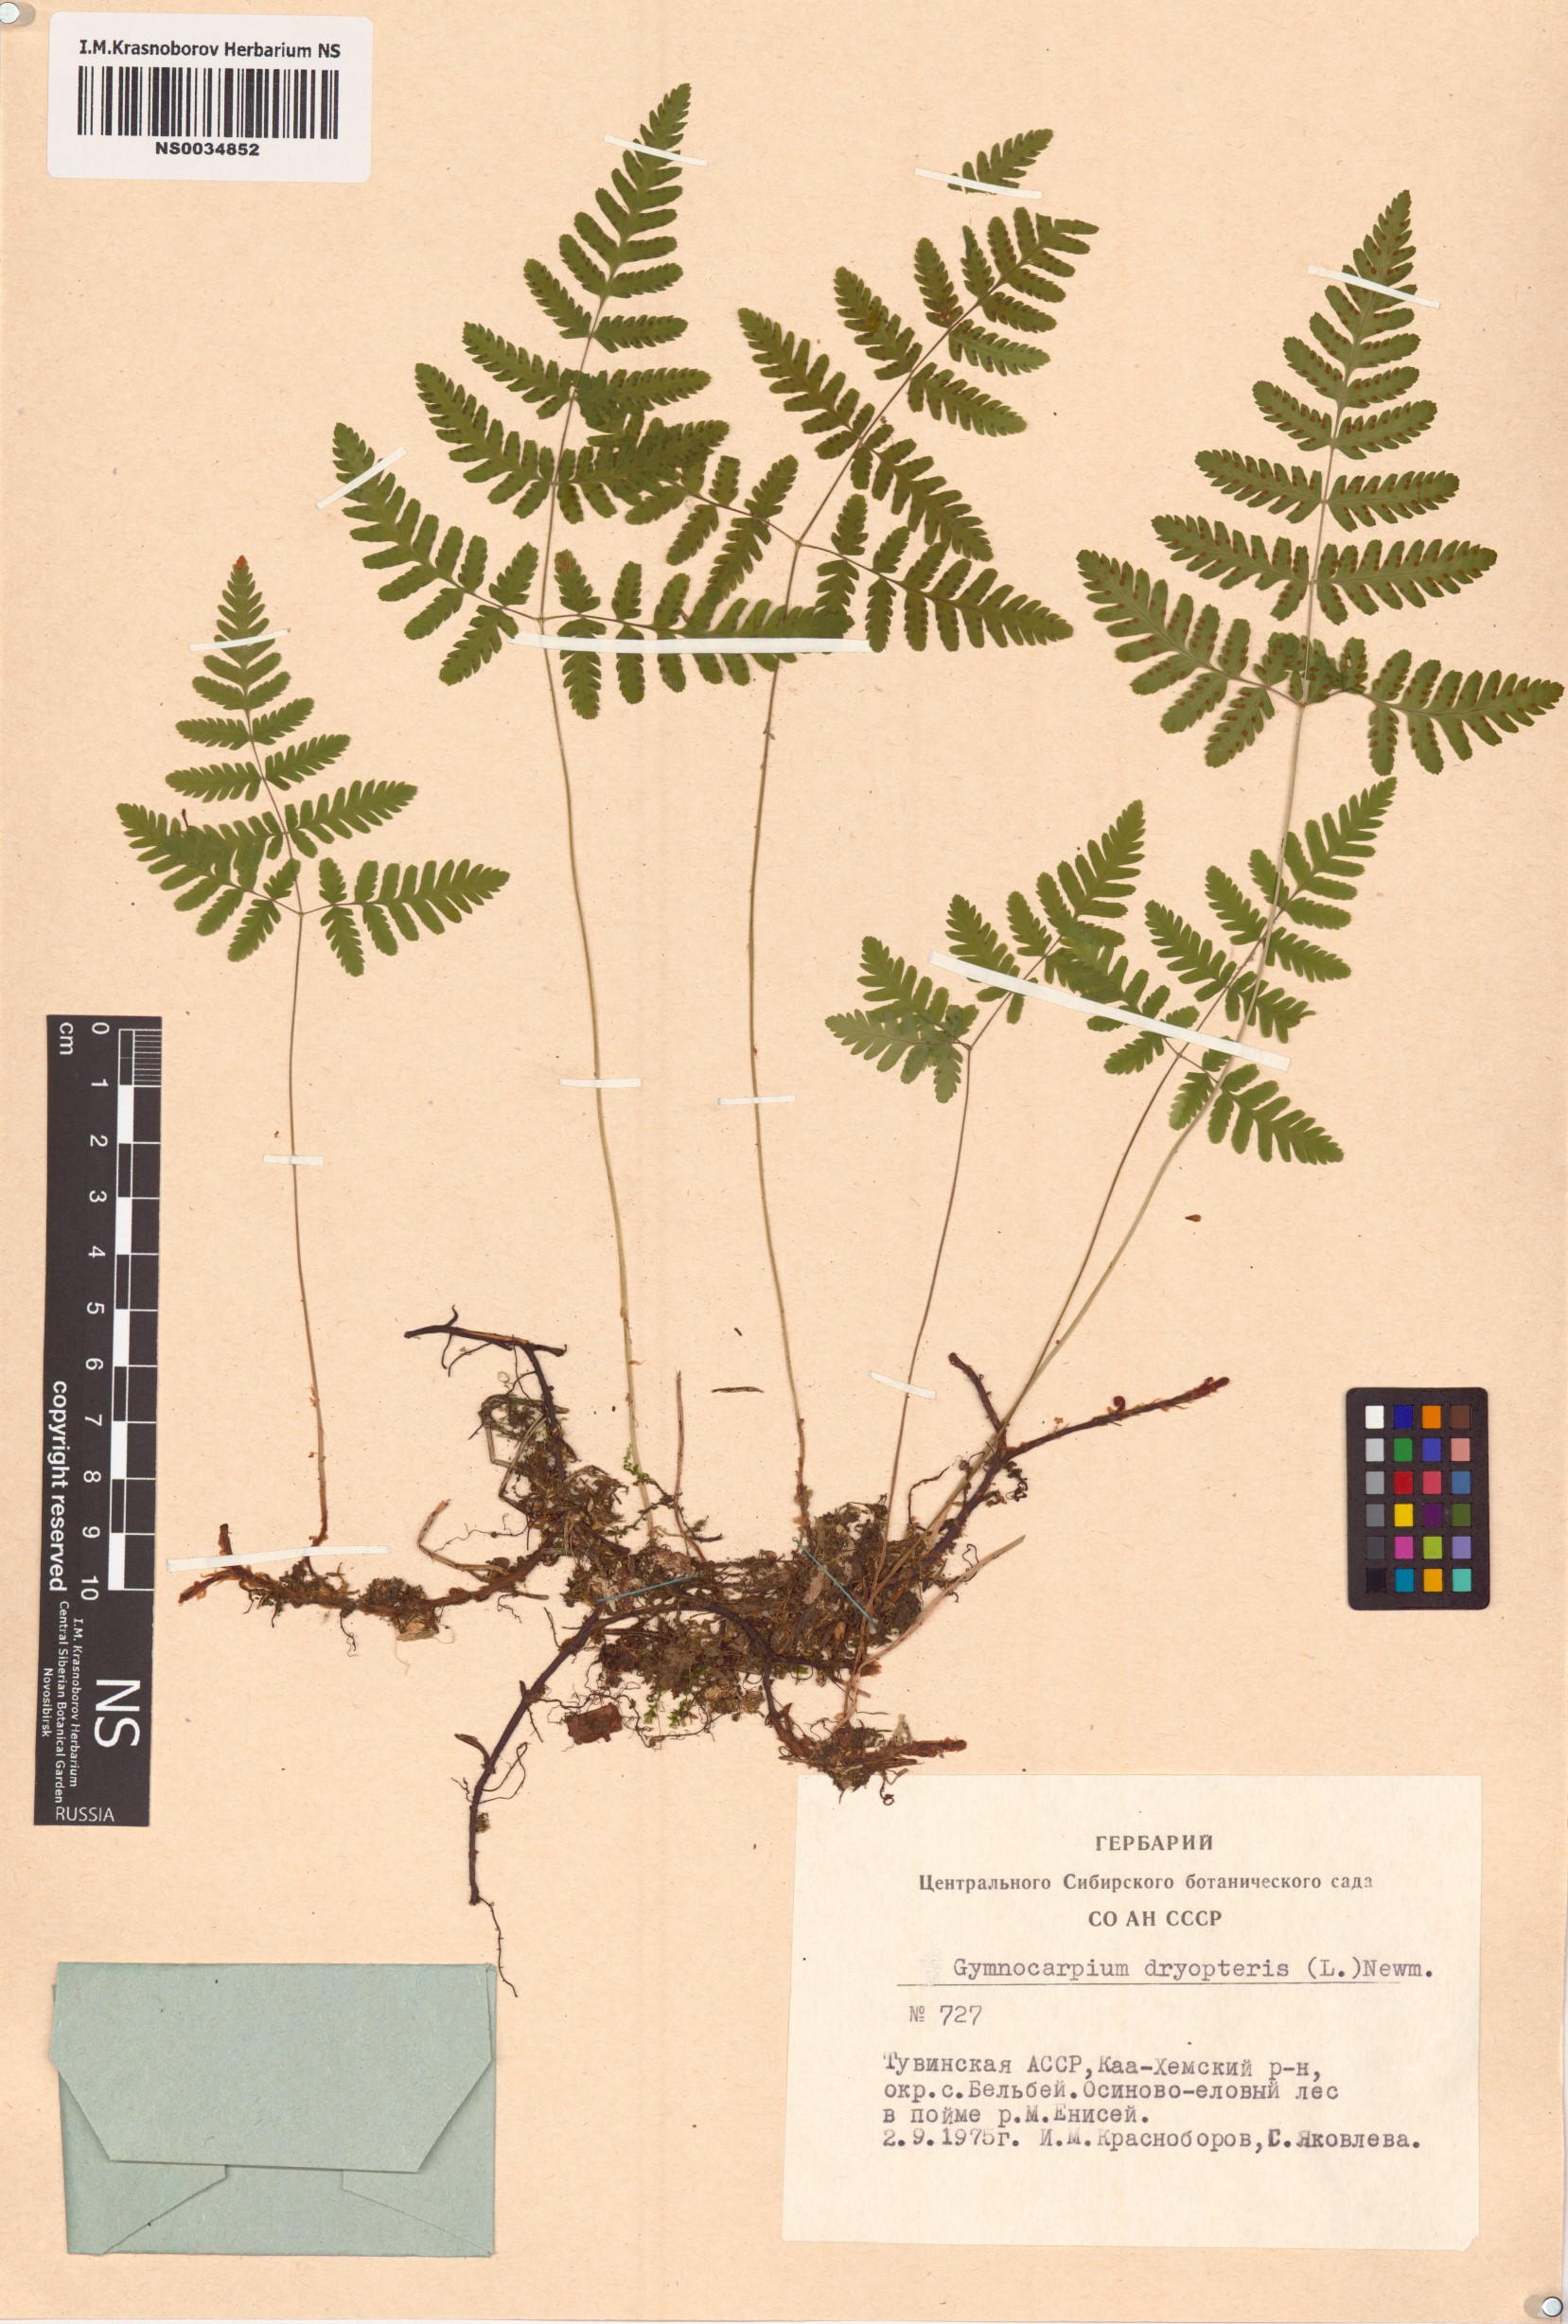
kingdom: Plantae
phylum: Tracheophyta
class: Polypodiopsida
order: Polypodiales
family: Cystopteridaceae
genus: Gymnocarpium
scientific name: Gymnocarpium dryopteris
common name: Oak fern
